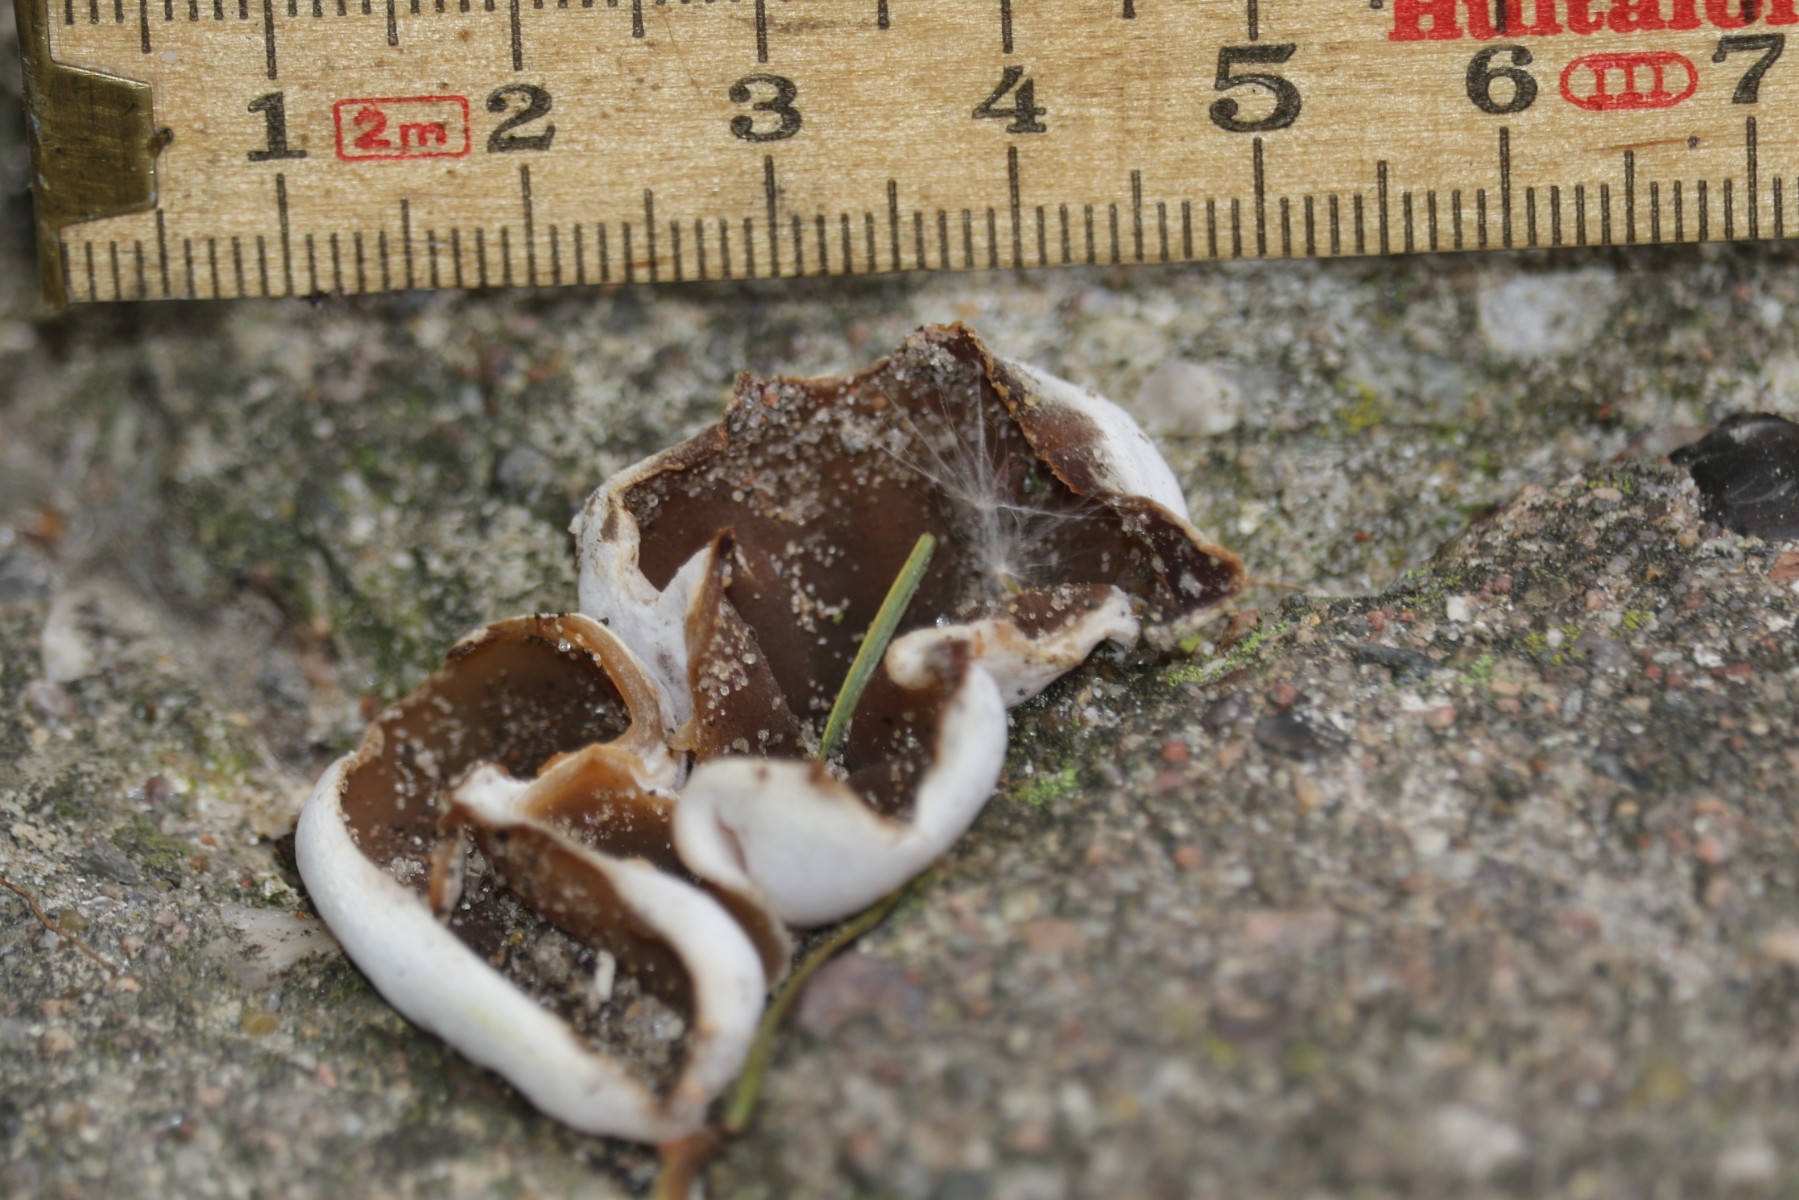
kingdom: Fungi
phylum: Ascomycota
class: Pezizomycetes
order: Pezizales
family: Pezizaceae
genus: Peziza
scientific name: Peziza
